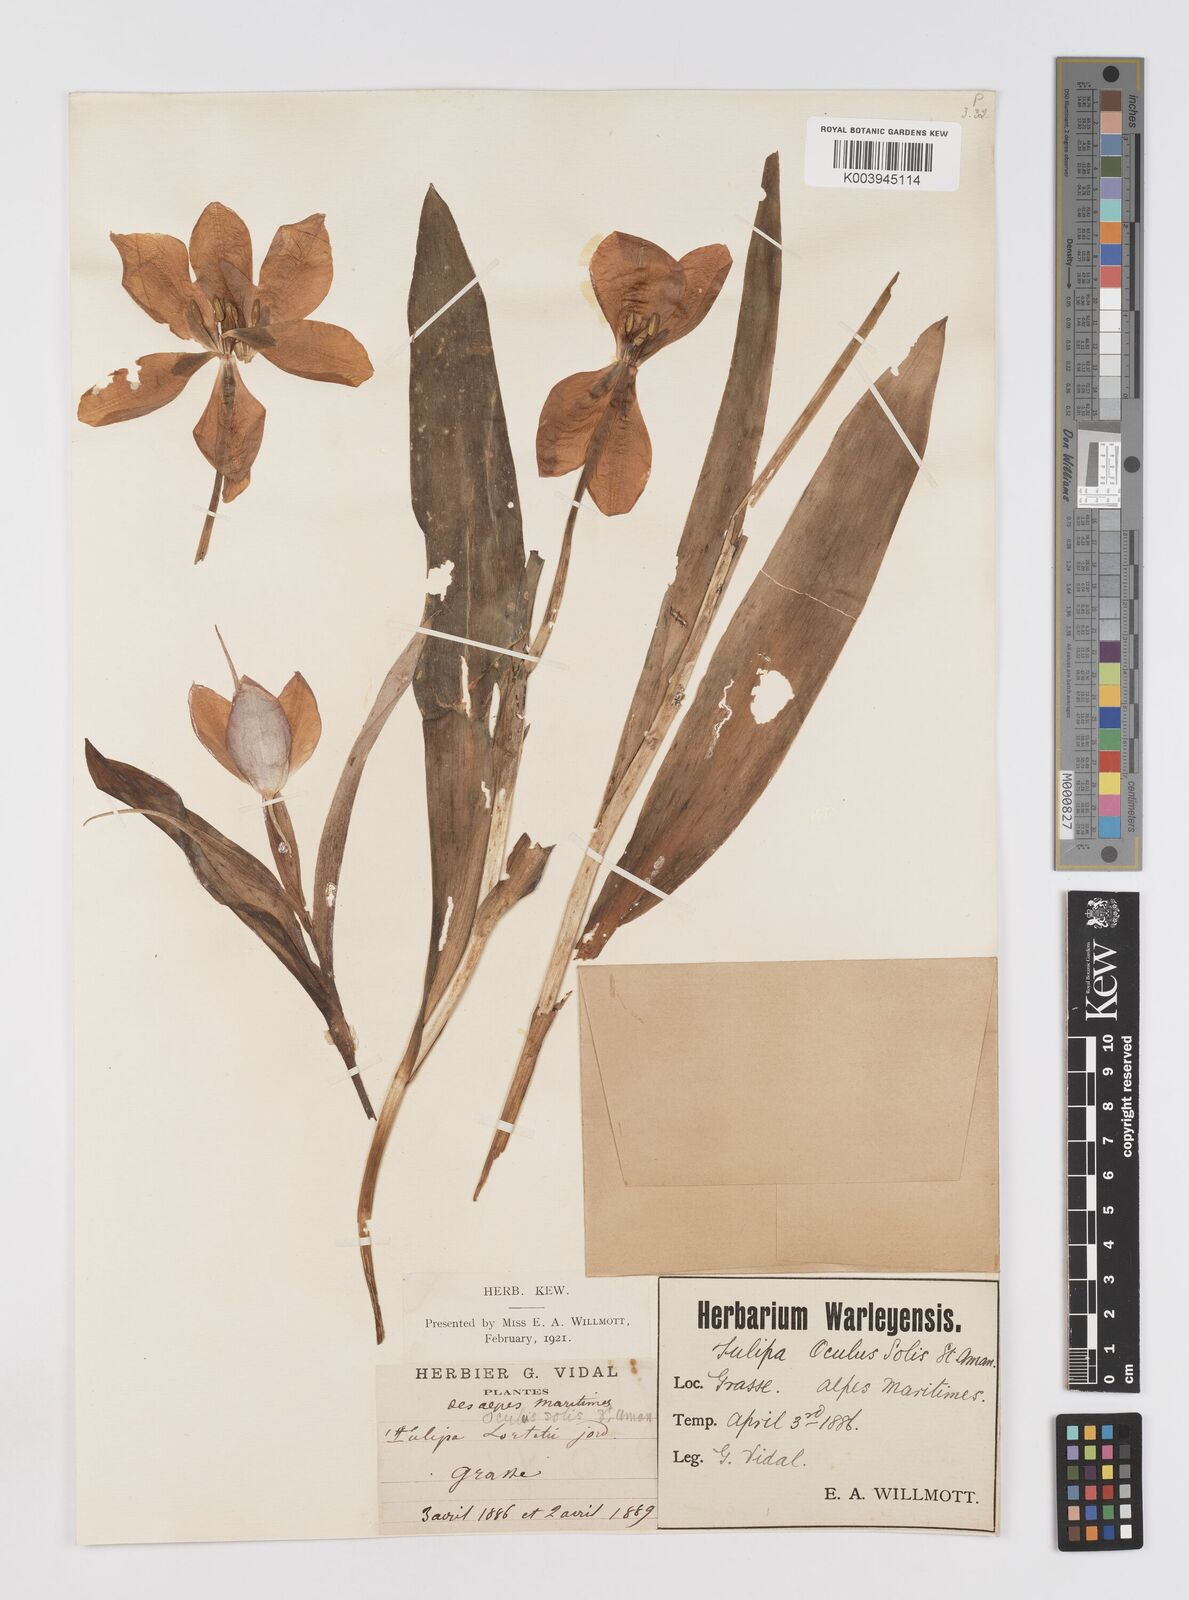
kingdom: Plantae
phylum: Tracheophyta
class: Liliopsida
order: Liliales
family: Liliaceae
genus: Tulipa
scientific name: Tulipa
